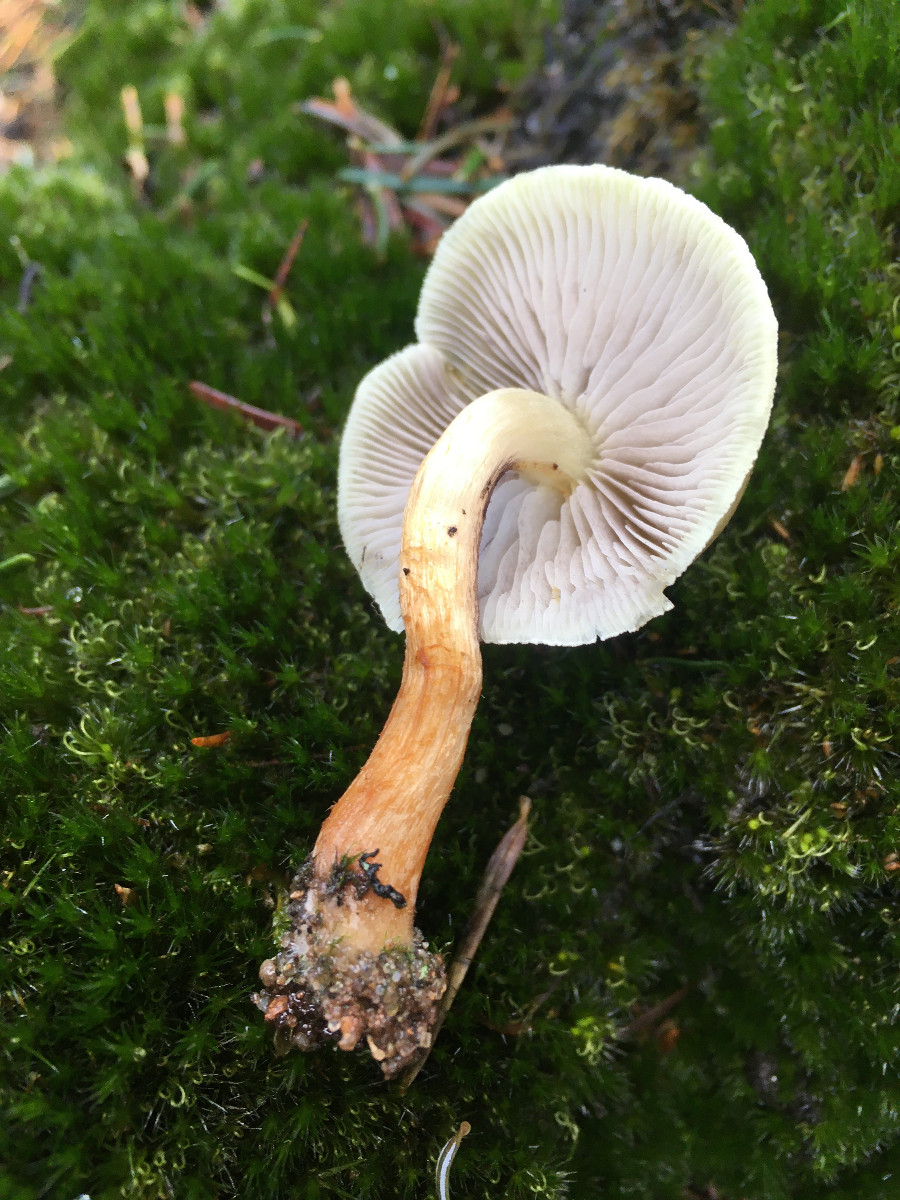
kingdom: Fungi
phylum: Basidiomycota
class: Agaricomycetes
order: Agaricales
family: Strophariaceae
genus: Hypholoma
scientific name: Hypholoma capnoides
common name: gran-svovlhat
